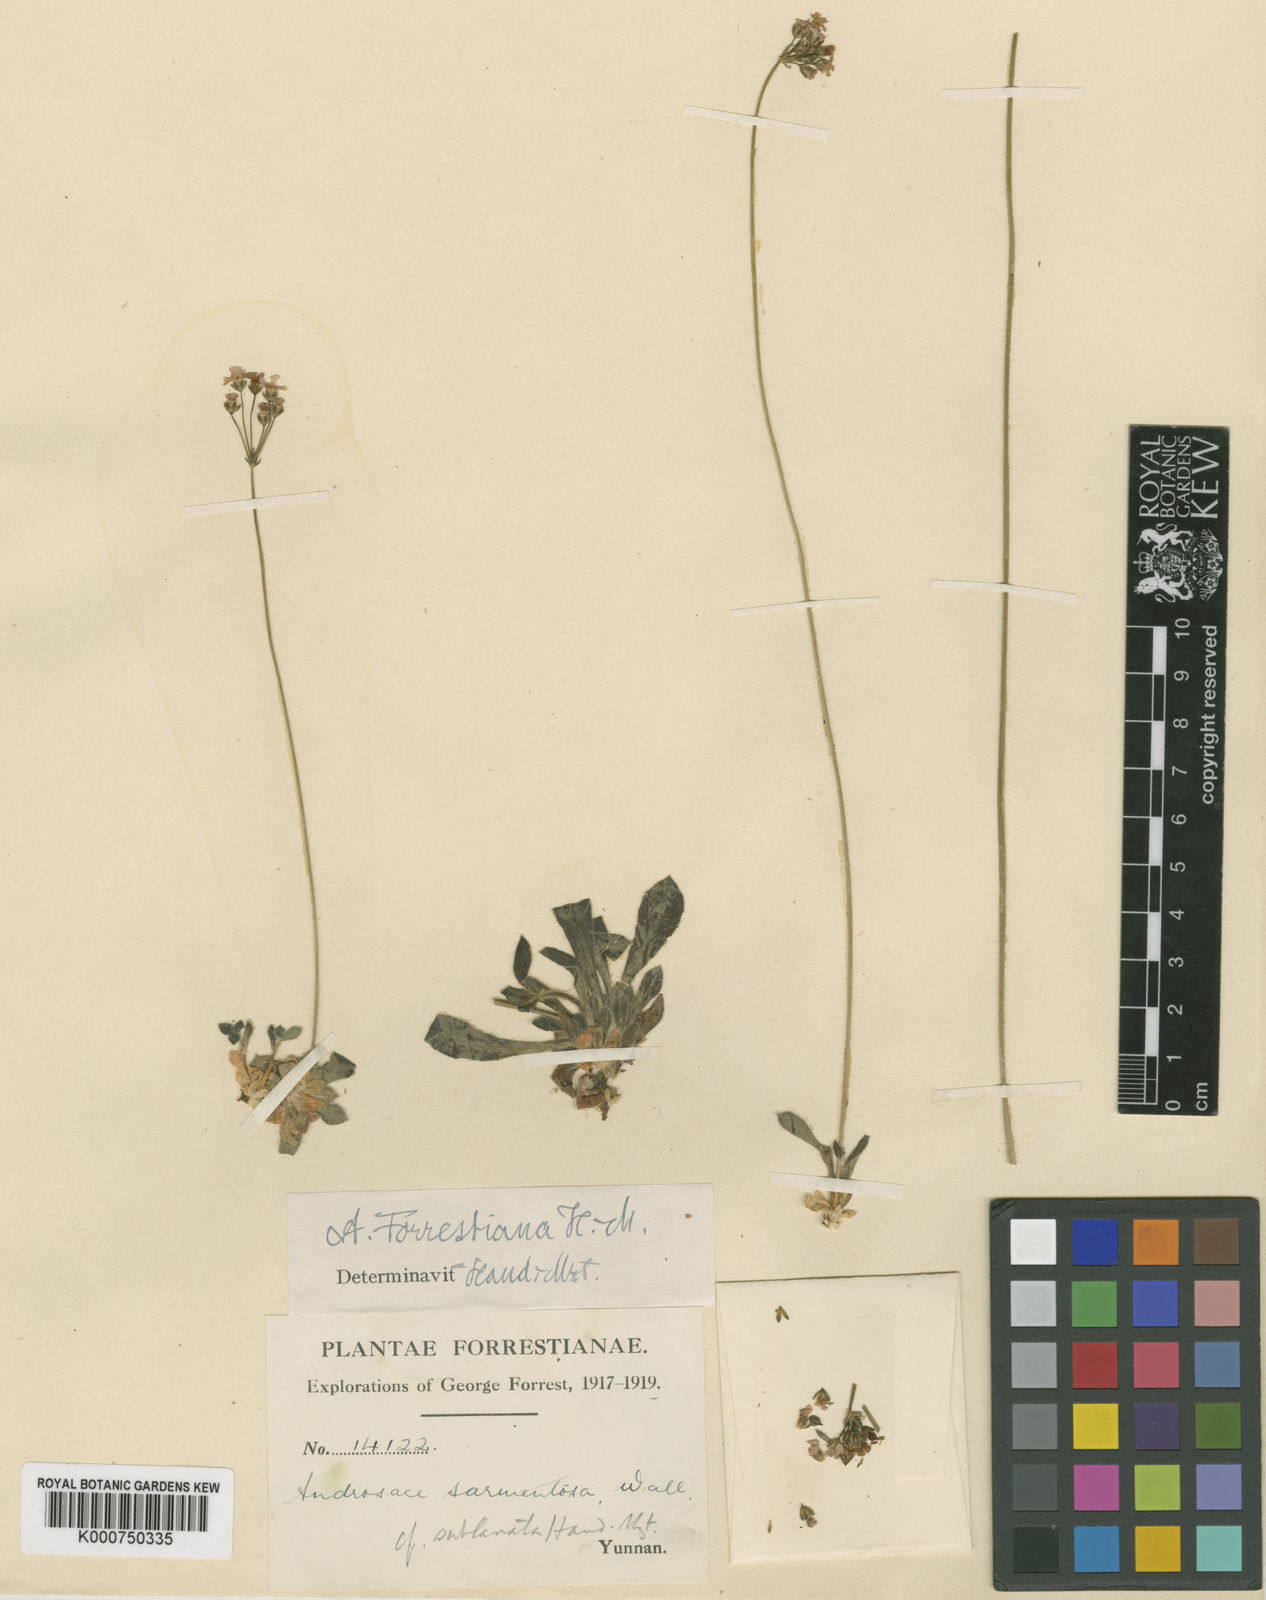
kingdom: Plantae
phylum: Tracheophyta
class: Magnoliopsida
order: Ericales
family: Primulaceae
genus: Androsace
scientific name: Androsace forrestiana
